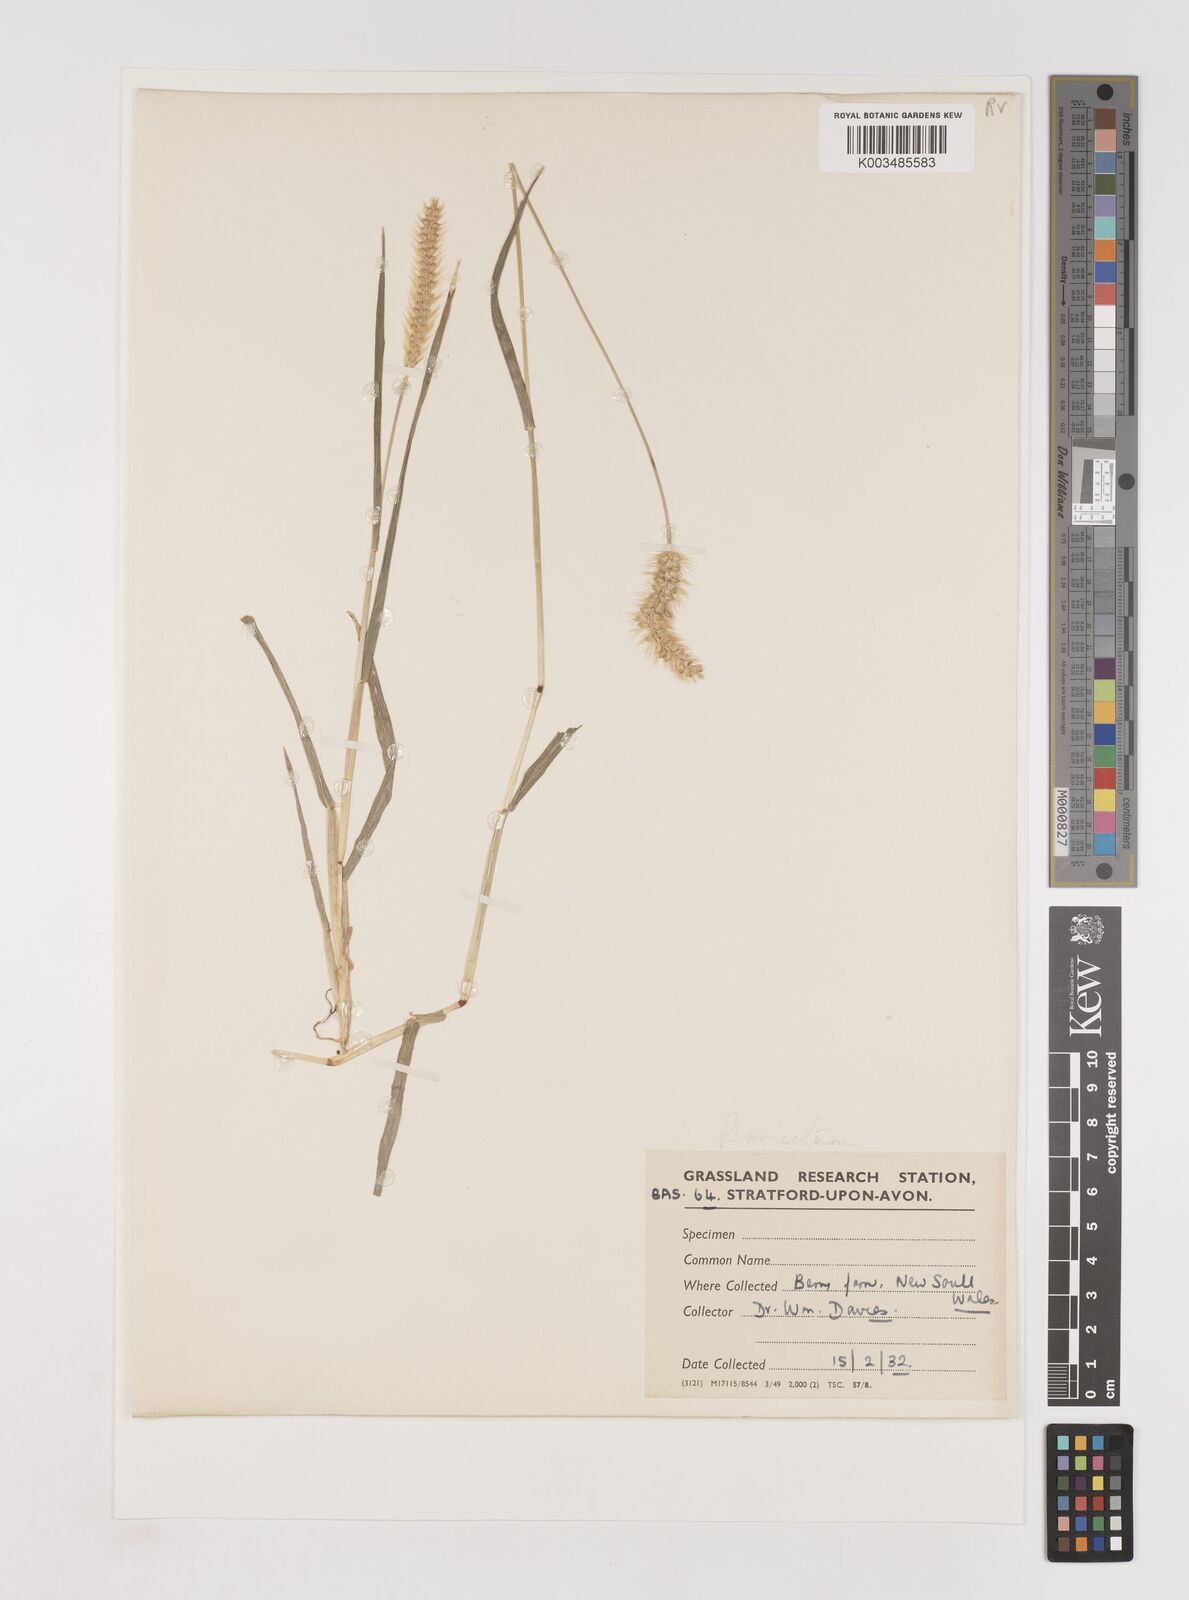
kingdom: Plantae
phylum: Tracheophyta
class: Liliopsida
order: Poales
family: Poaceae
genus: Setaria
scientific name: Setaria
